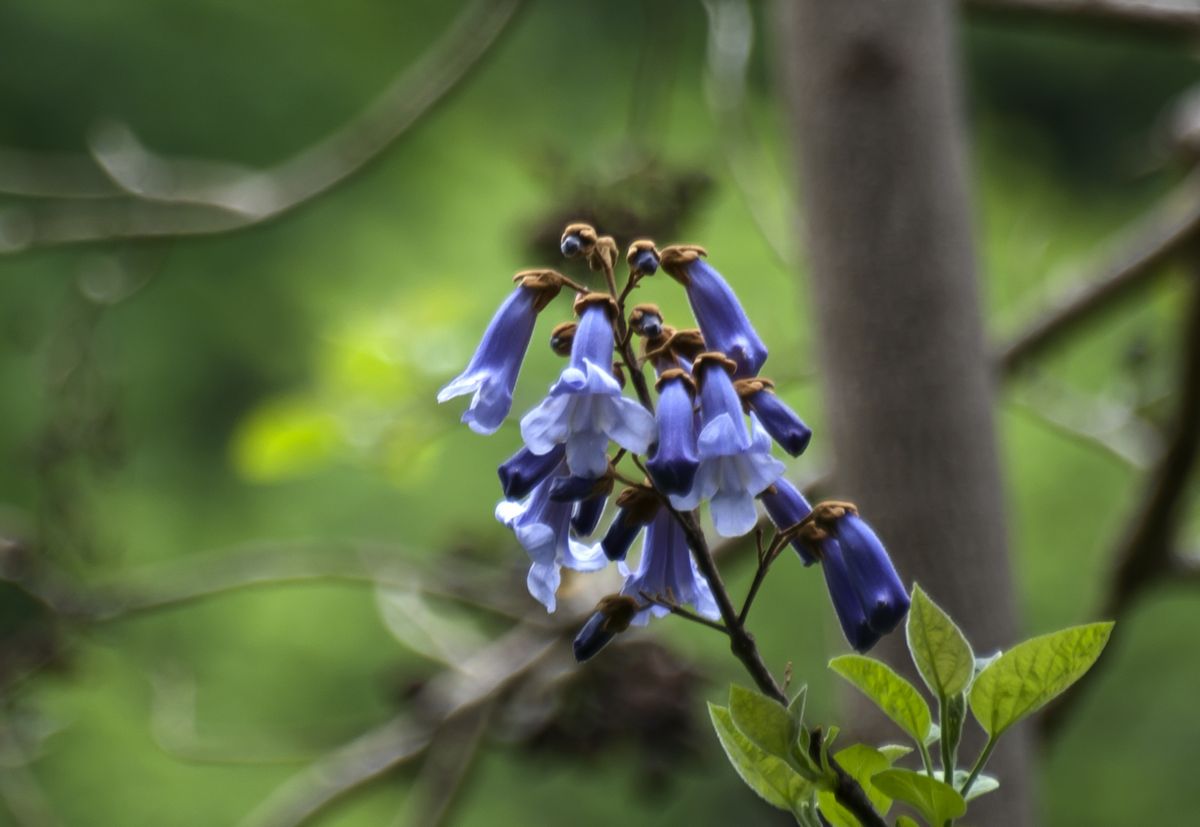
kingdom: Plantae
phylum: Tracheophyta
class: Magnoliopsida
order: Lamiales
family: Paulowniaceae
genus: Paulownia
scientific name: Paulownia tomentosa
